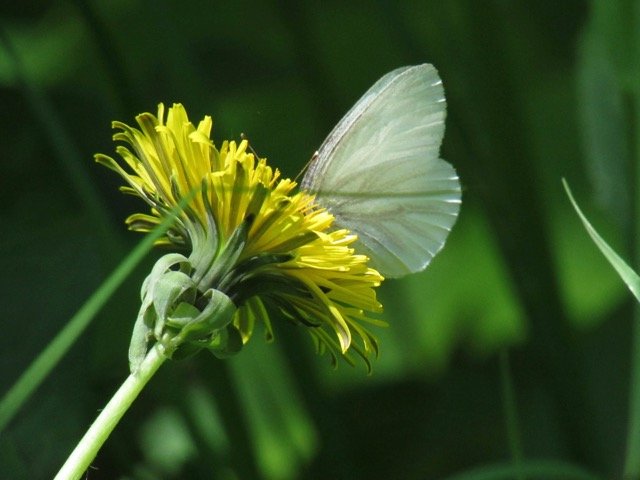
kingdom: Animalia
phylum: Arthropoda
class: Insecta
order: Lepidoptera
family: Pieridae
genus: Pieris
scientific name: Pieris virginiensis
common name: West Virginia White
